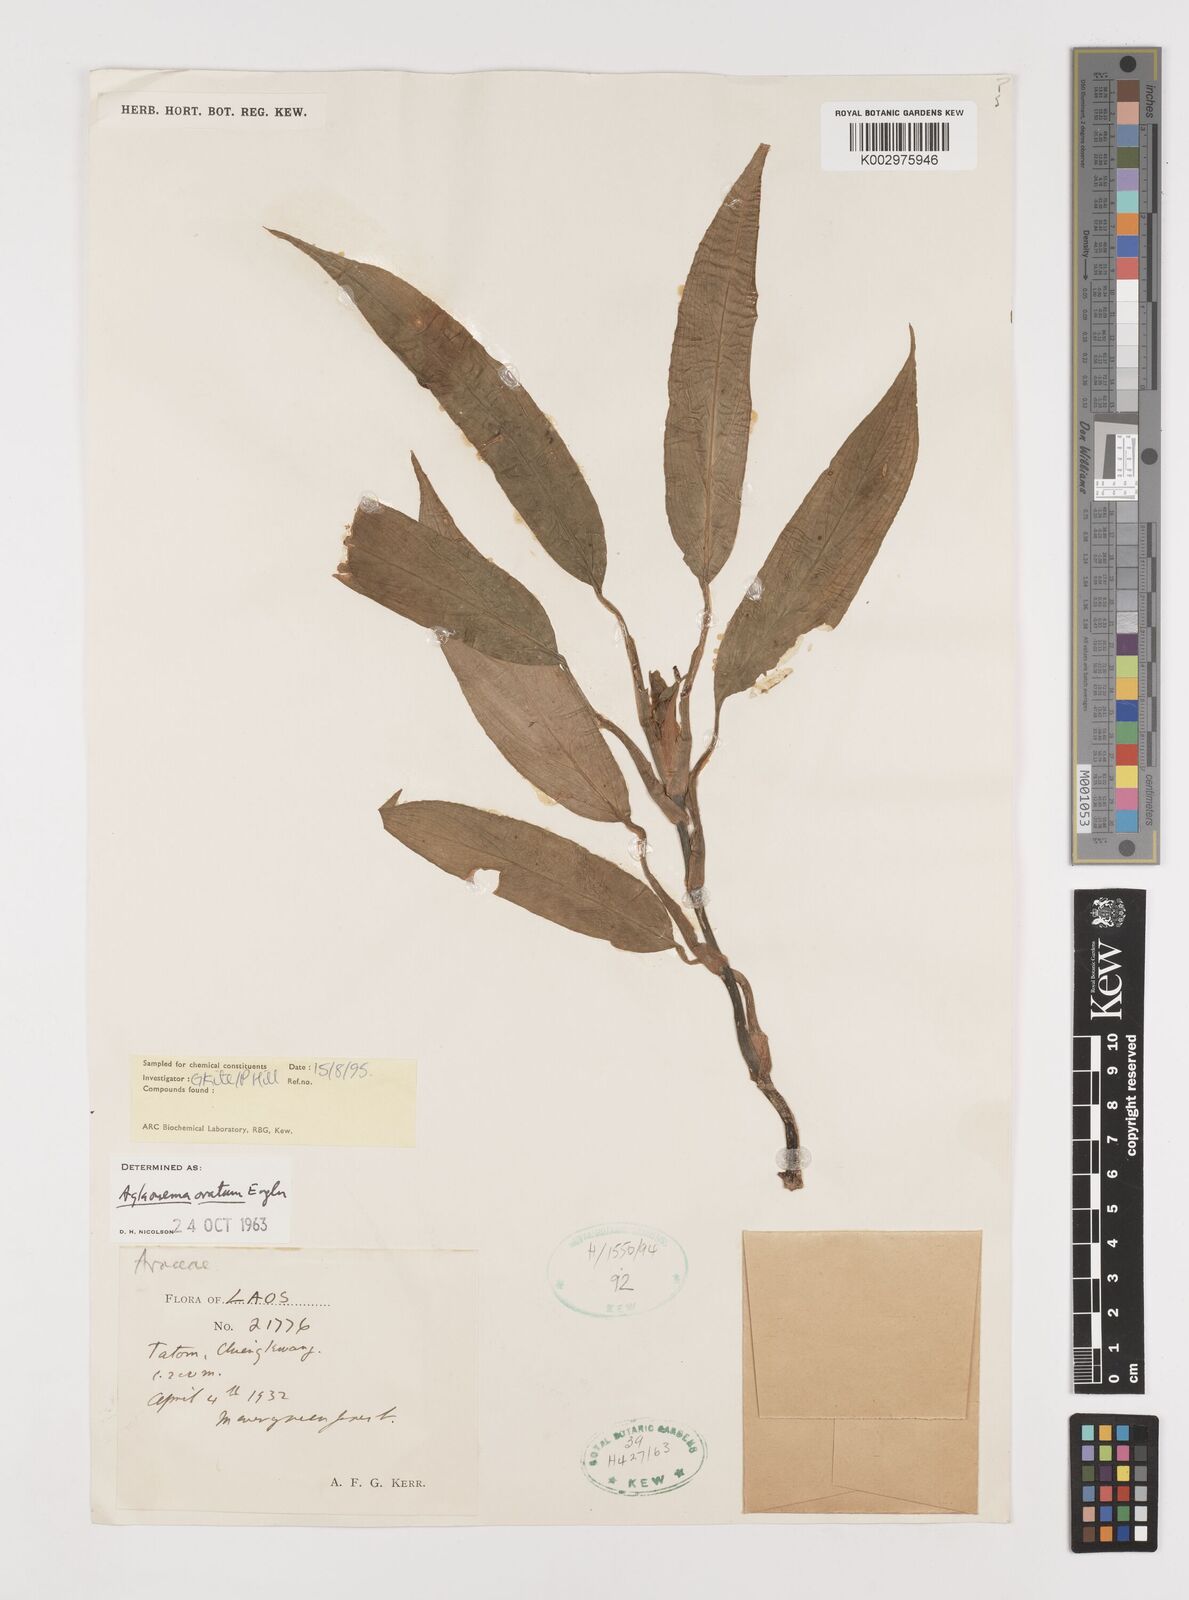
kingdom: Plantae
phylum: Tracheophyta
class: Liliopsida
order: Alismatales
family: Araceae
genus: Aglaonema
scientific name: Aglaonema ovatum
